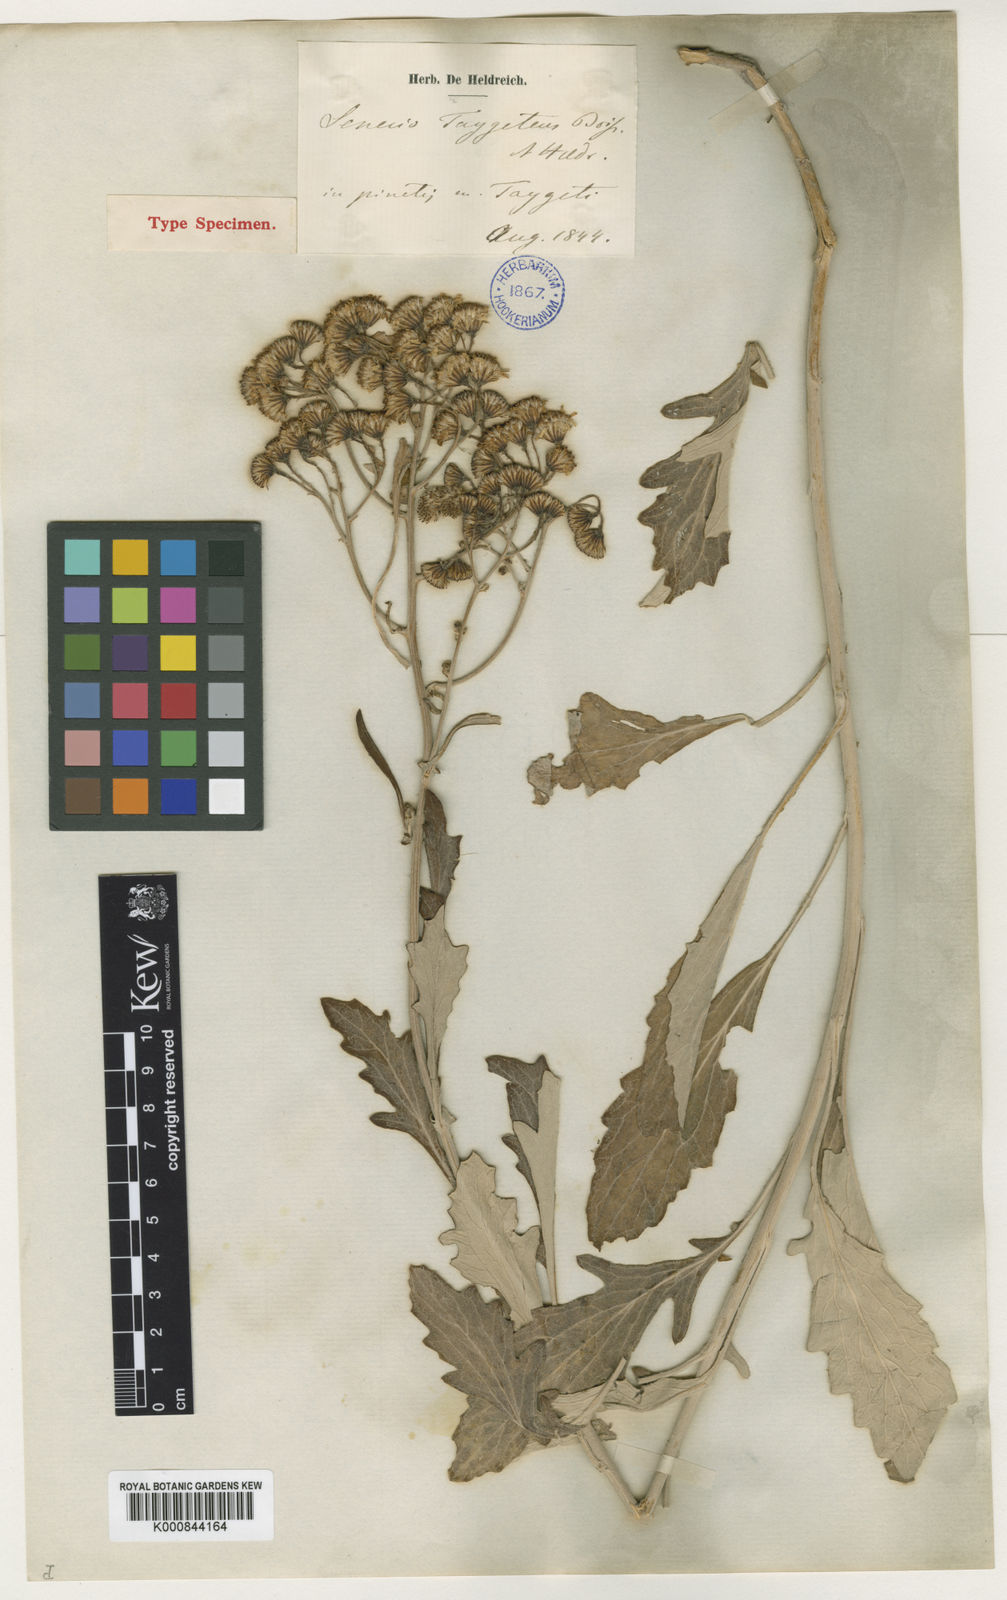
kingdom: Plantae
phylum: Tracheophyta
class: Magnoliopsida
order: Asterales
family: Asteraceae
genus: Jacobaea
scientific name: Jacobaea ambigua
